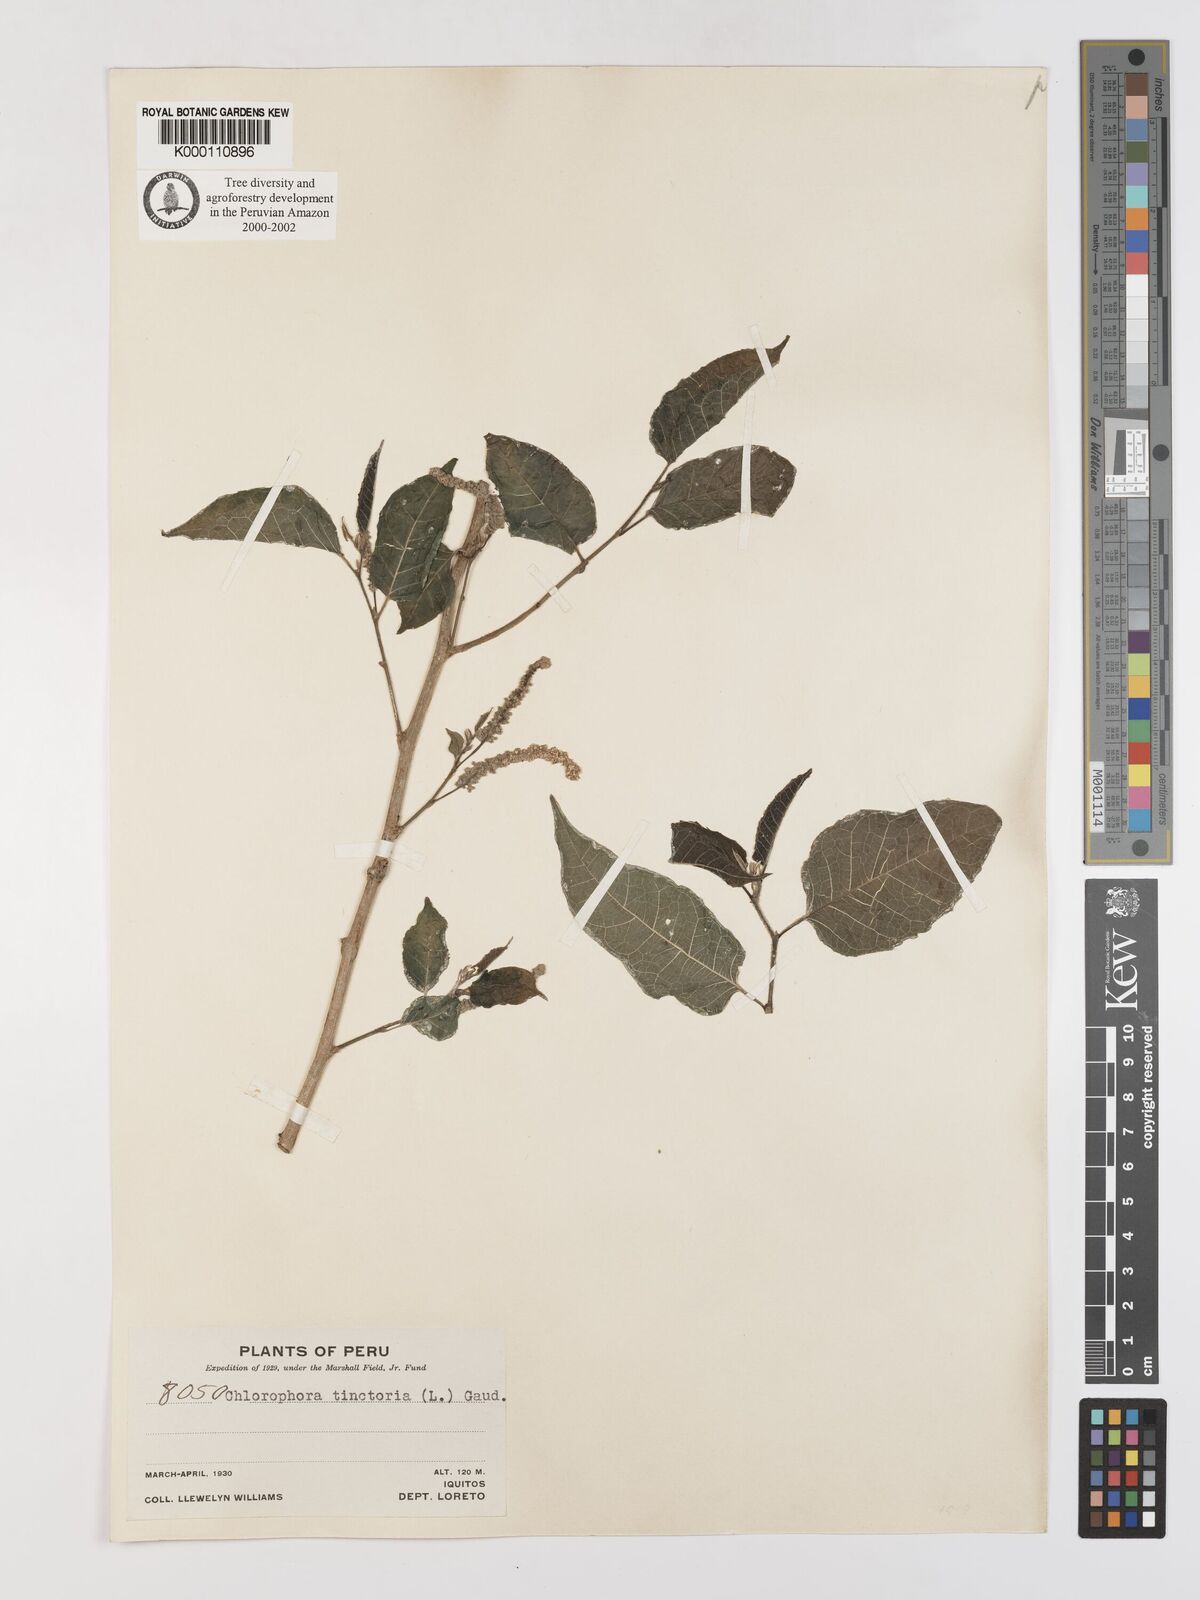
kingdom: Plantae
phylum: Tracheophyta
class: Magnoliopsida
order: Rosales
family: Moraceae
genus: Maclura
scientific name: Maclura tinctoria
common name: Old fustic
